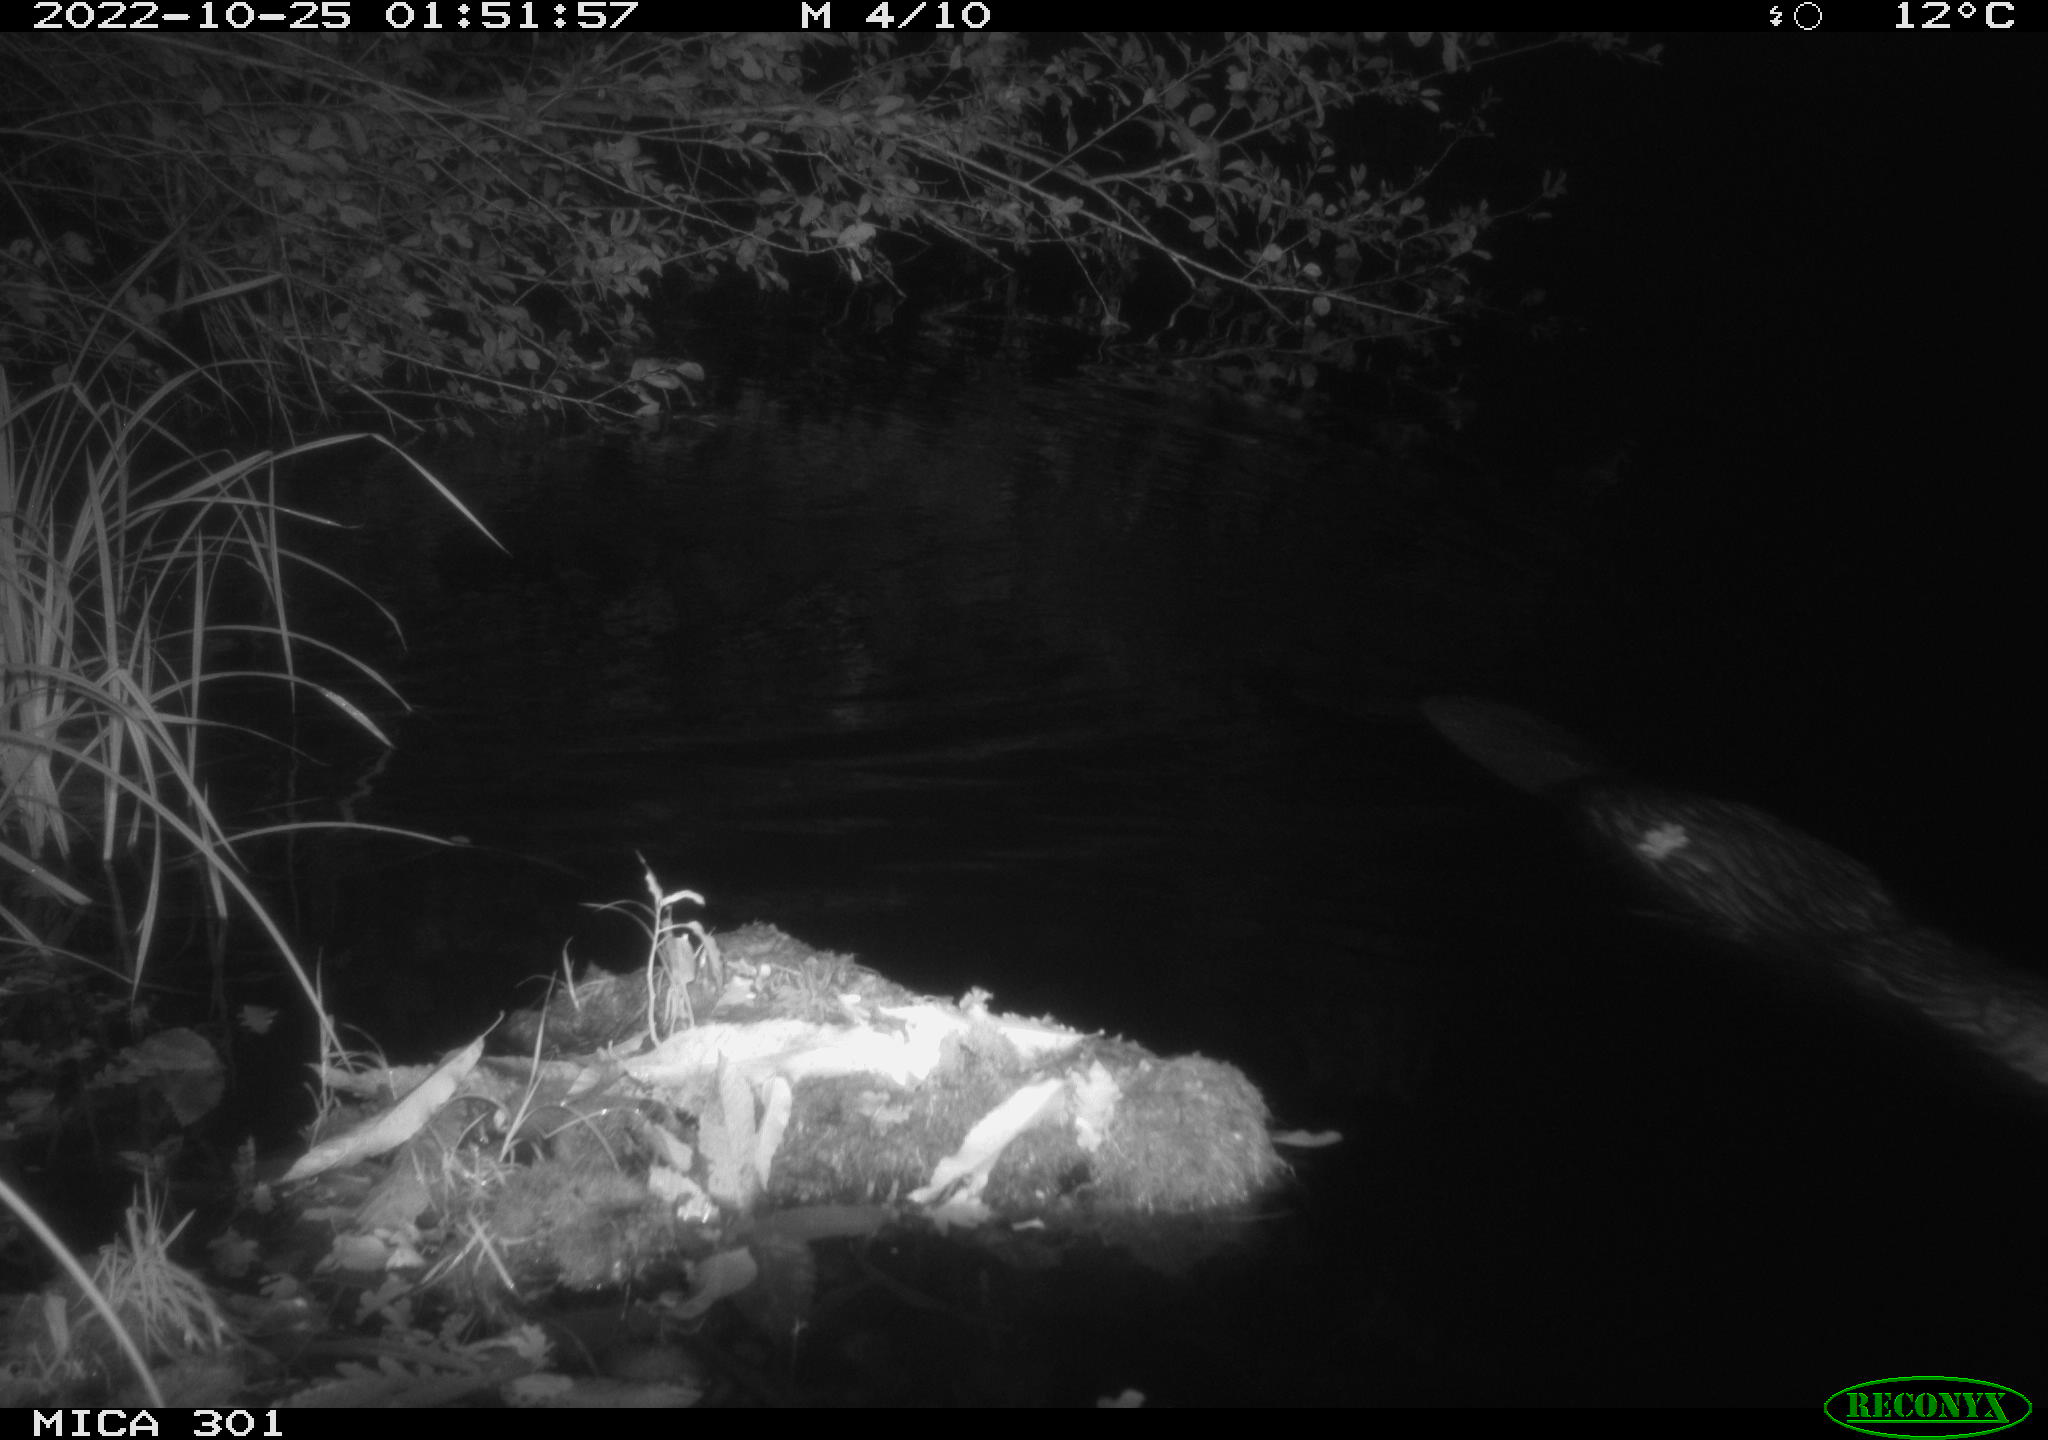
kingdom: Animalia
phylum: Chordata
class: Mammalia
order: Rodentia
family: Castoridae
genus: Castor
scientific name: Castor fiber
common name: Eurasian beaver
